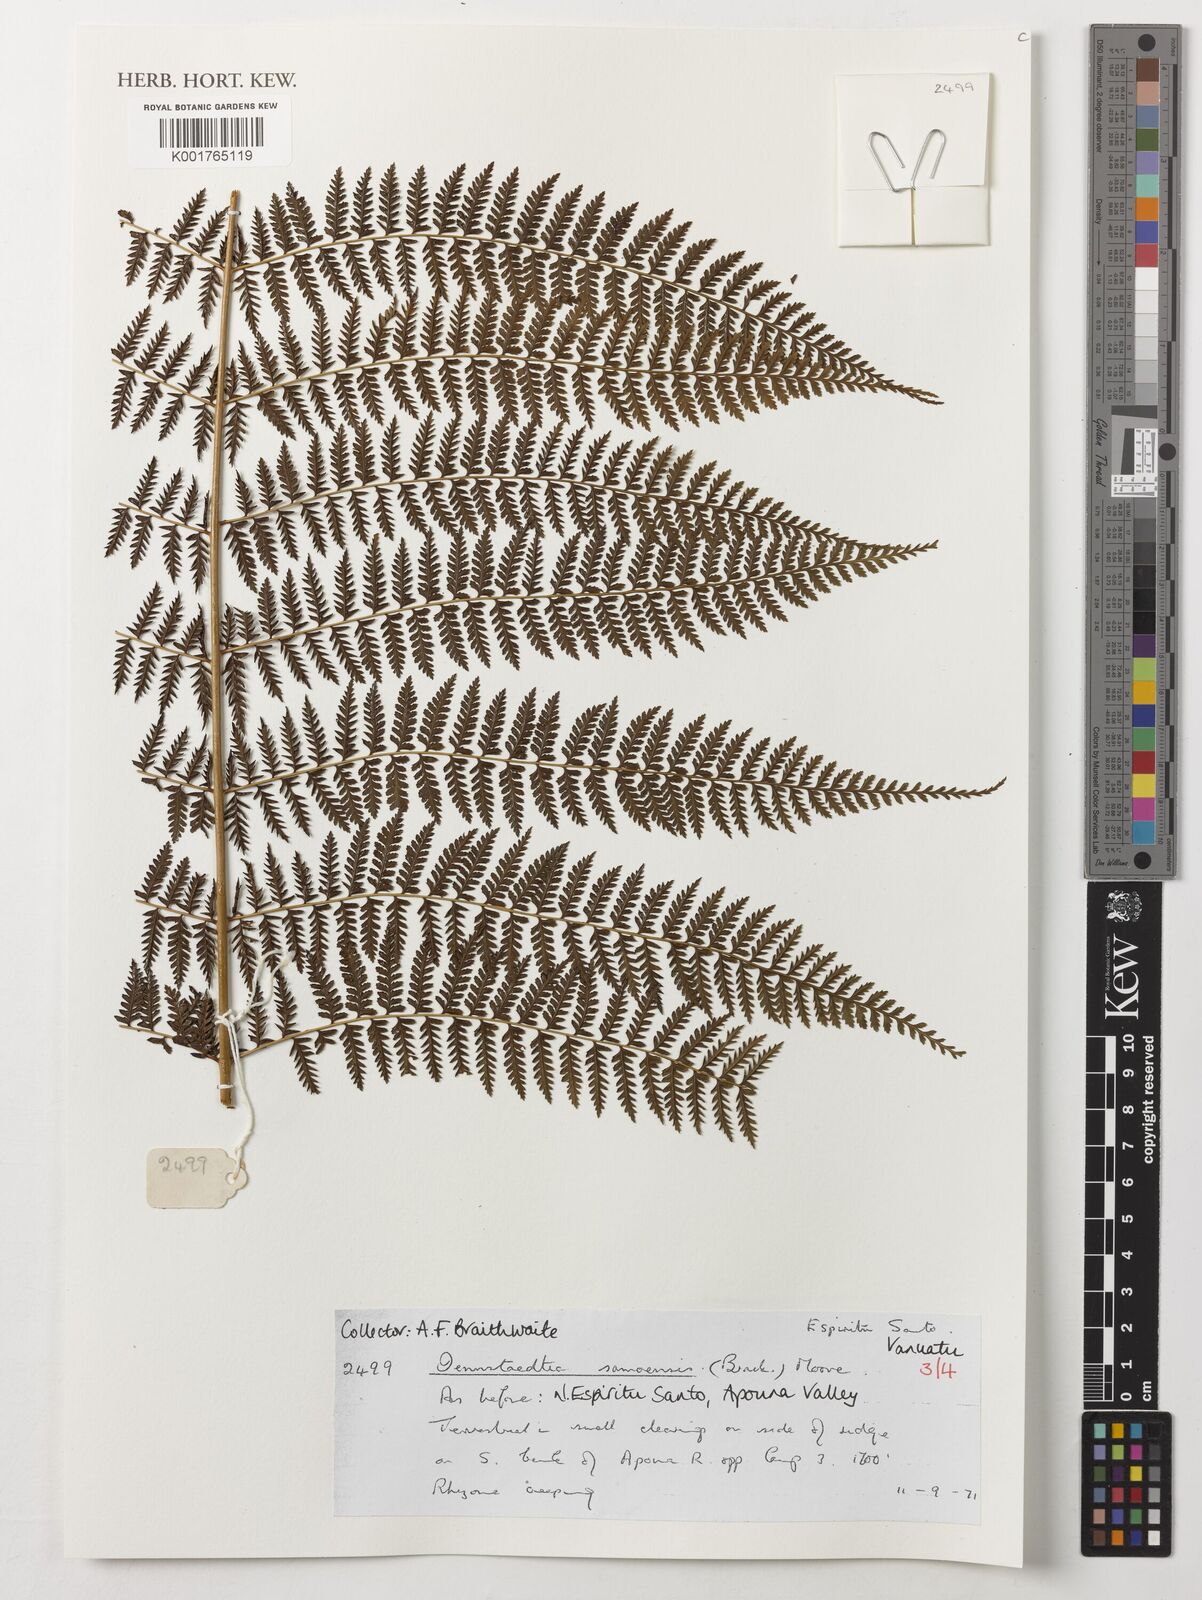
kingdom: Plantae
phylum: Tracheophyta
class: Polypodiopsida
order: Polypodiales
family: Dennstaedtiaceae
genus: Dennstaedtia
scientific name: Dennstaedtia samoensis
